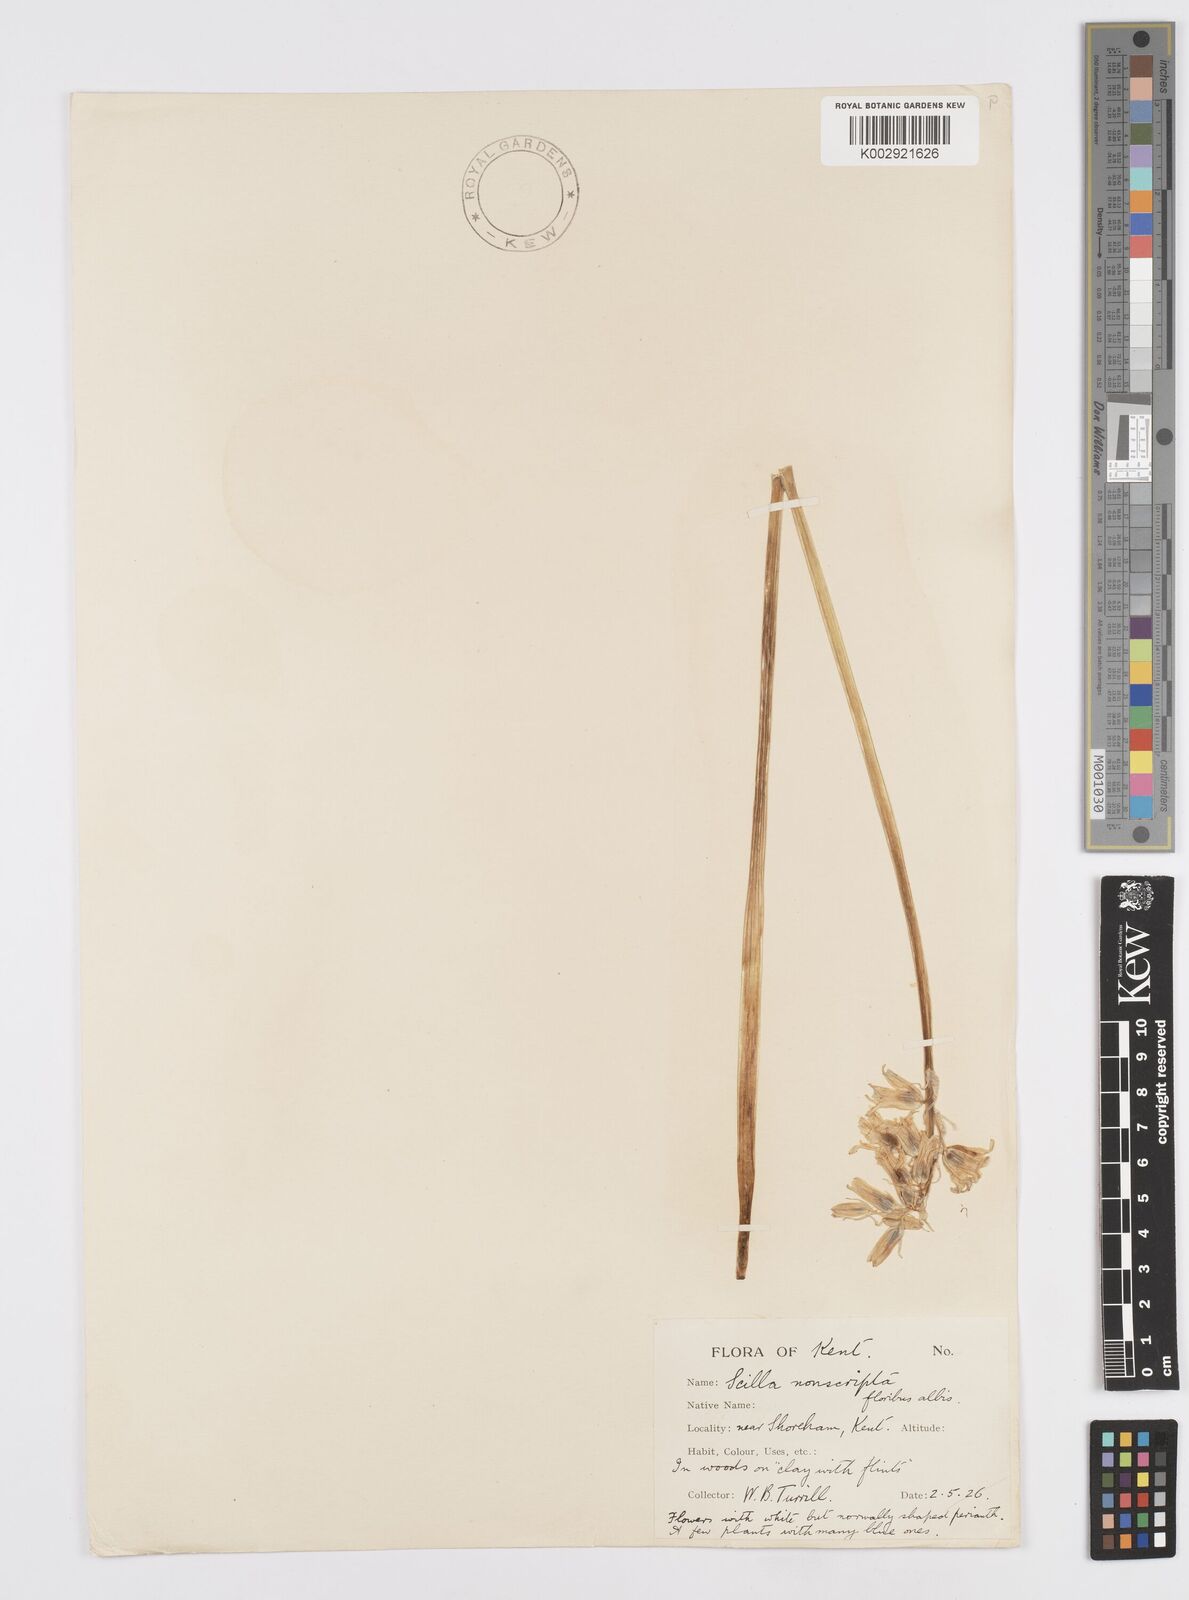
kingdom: Plantae
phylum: Tracheophyta
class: Liliopsida
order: Asparagales
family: Asparagaceae
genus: Hyacinthoides
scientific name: Hyacinthoides non-scripta
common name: Bluebell
